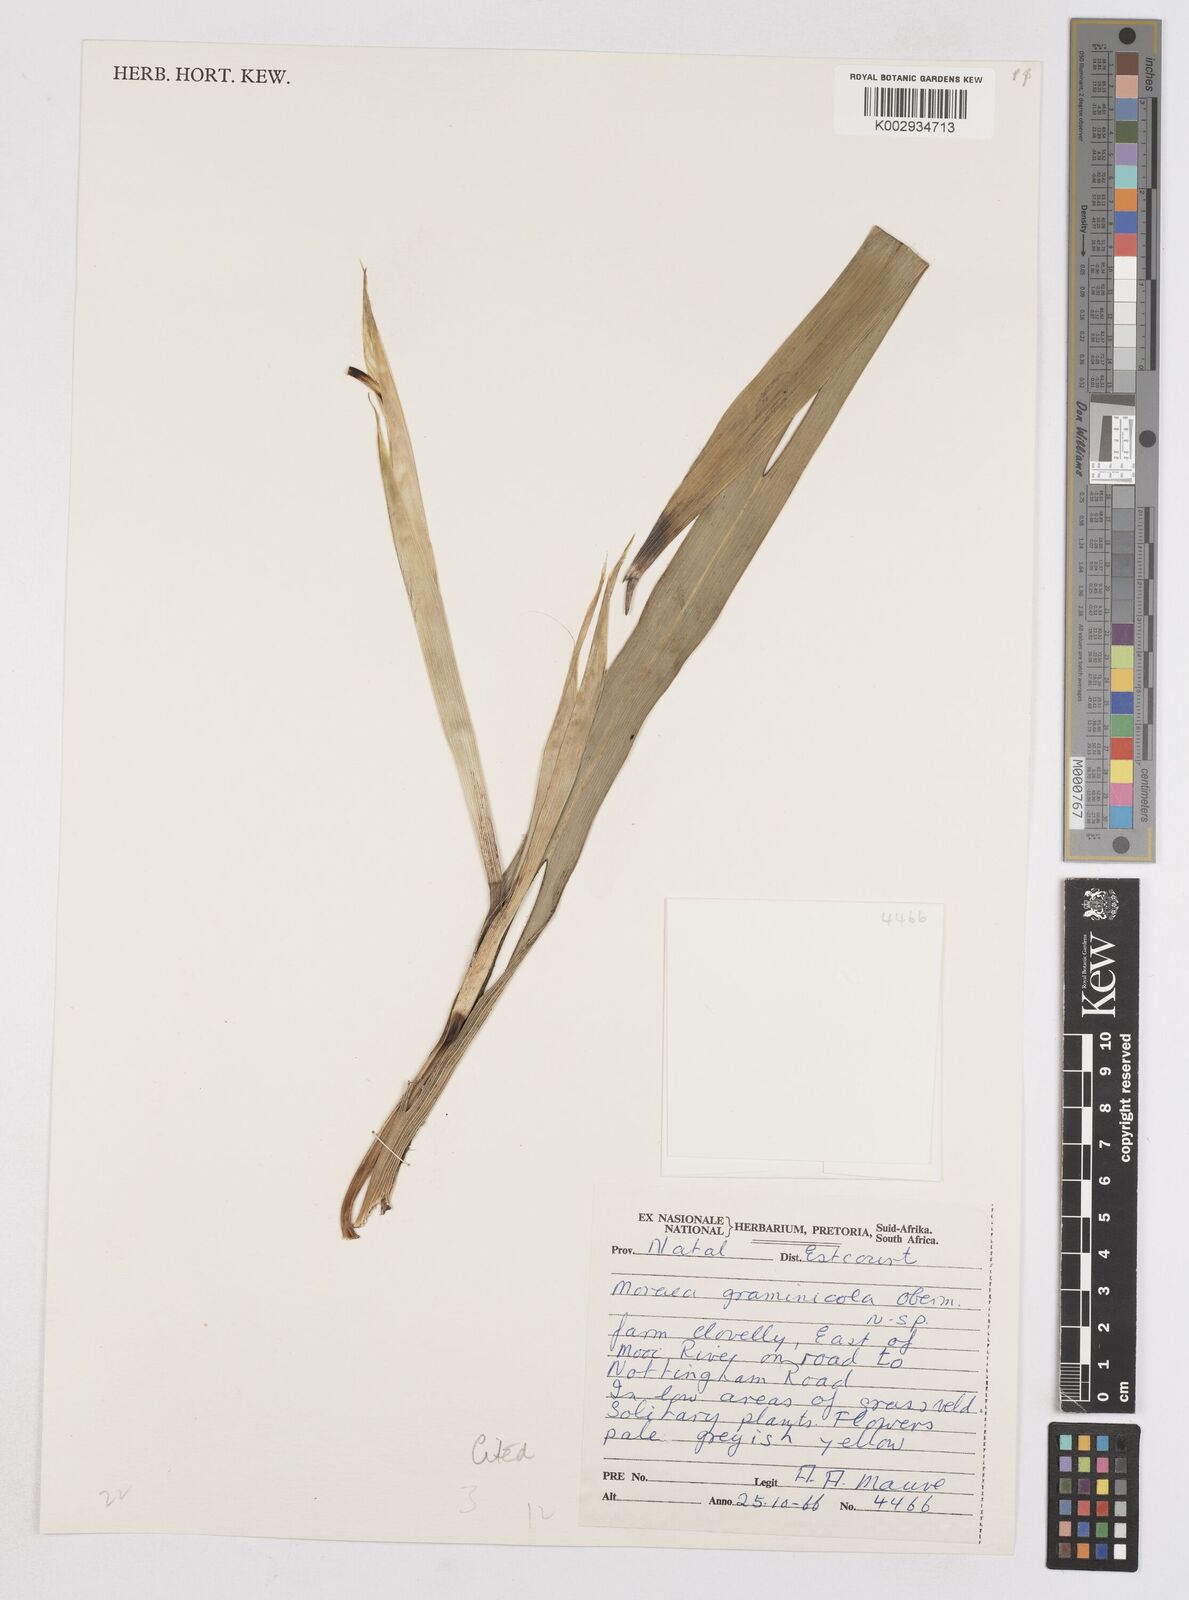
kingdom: Plantae
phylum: Tracheophyta
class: Liliopsida
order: Asparagales
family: Iridaceae
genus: Moraea
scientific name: Moraea graminicola
